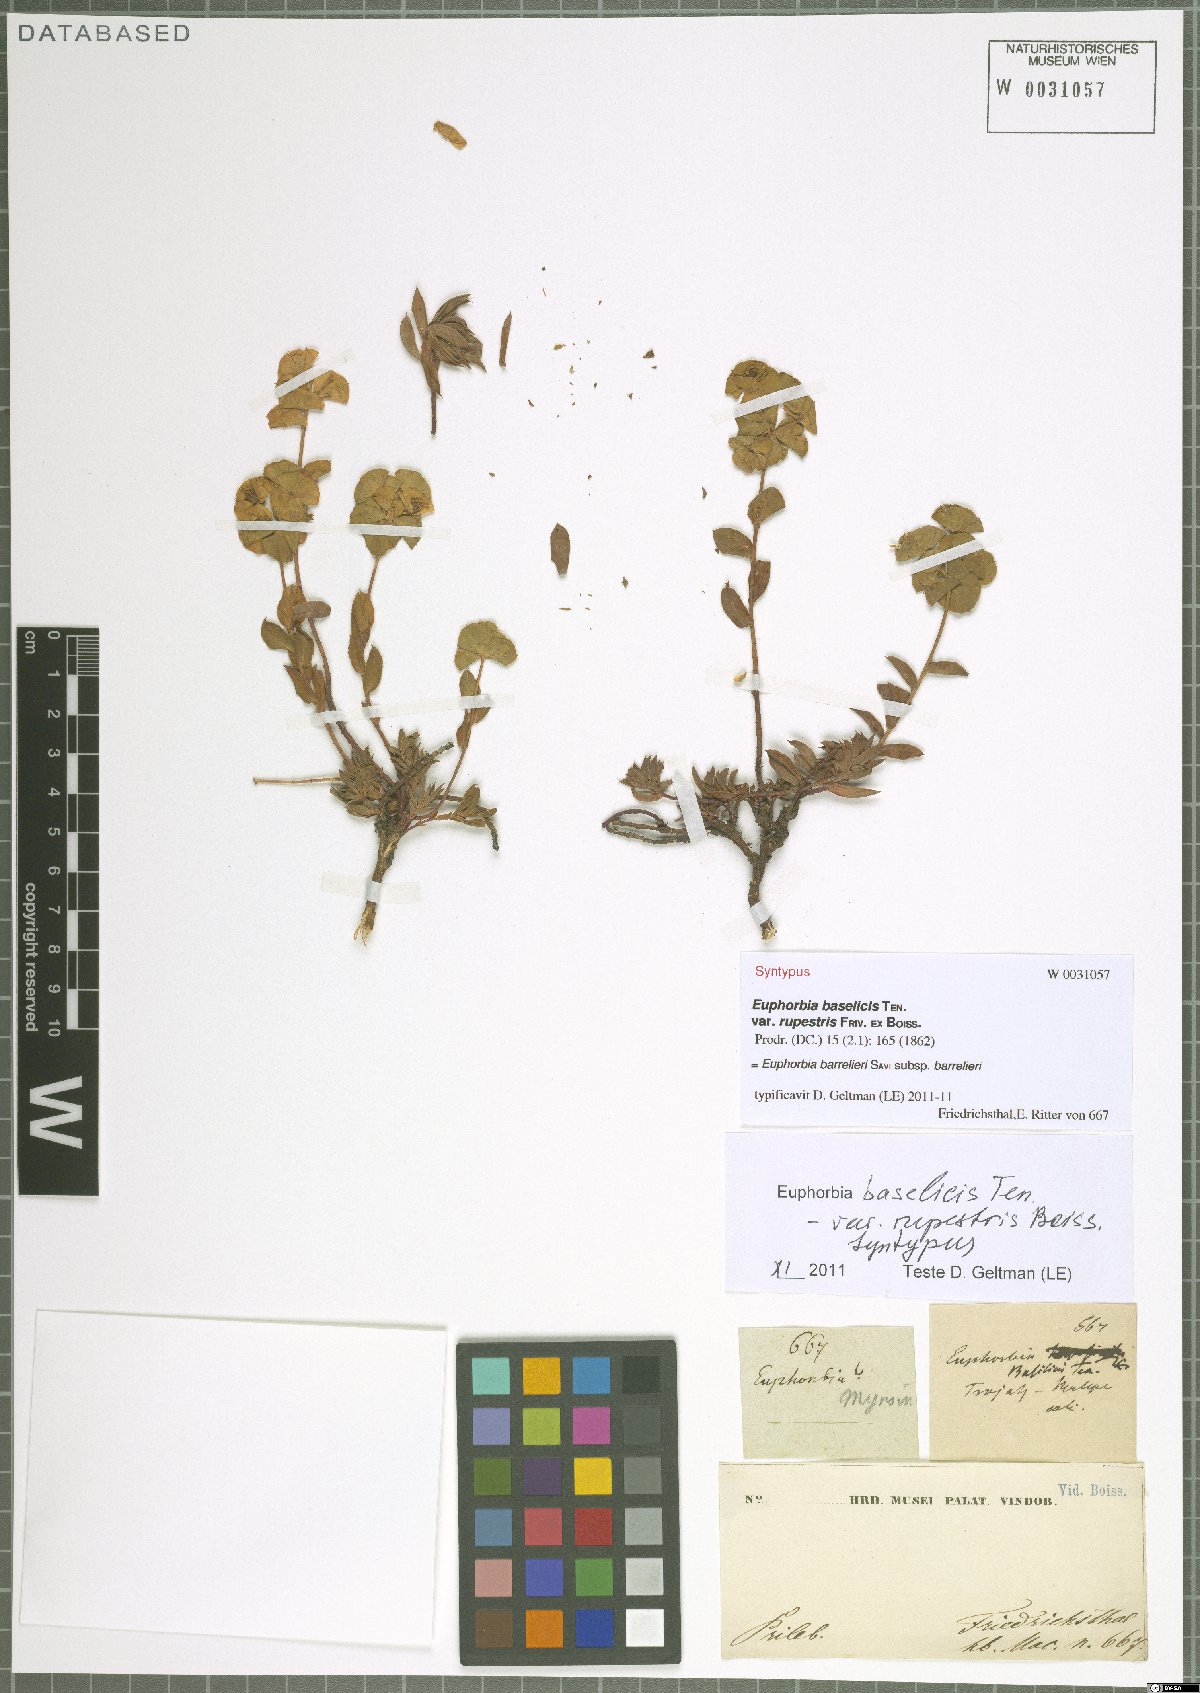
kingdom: Plantae
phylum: Tracheophyta
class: Magnoliopsida
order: Malpighiales
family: Euphorbiaceae
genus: Euphorbia
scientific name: Euphorbia barrelieri
